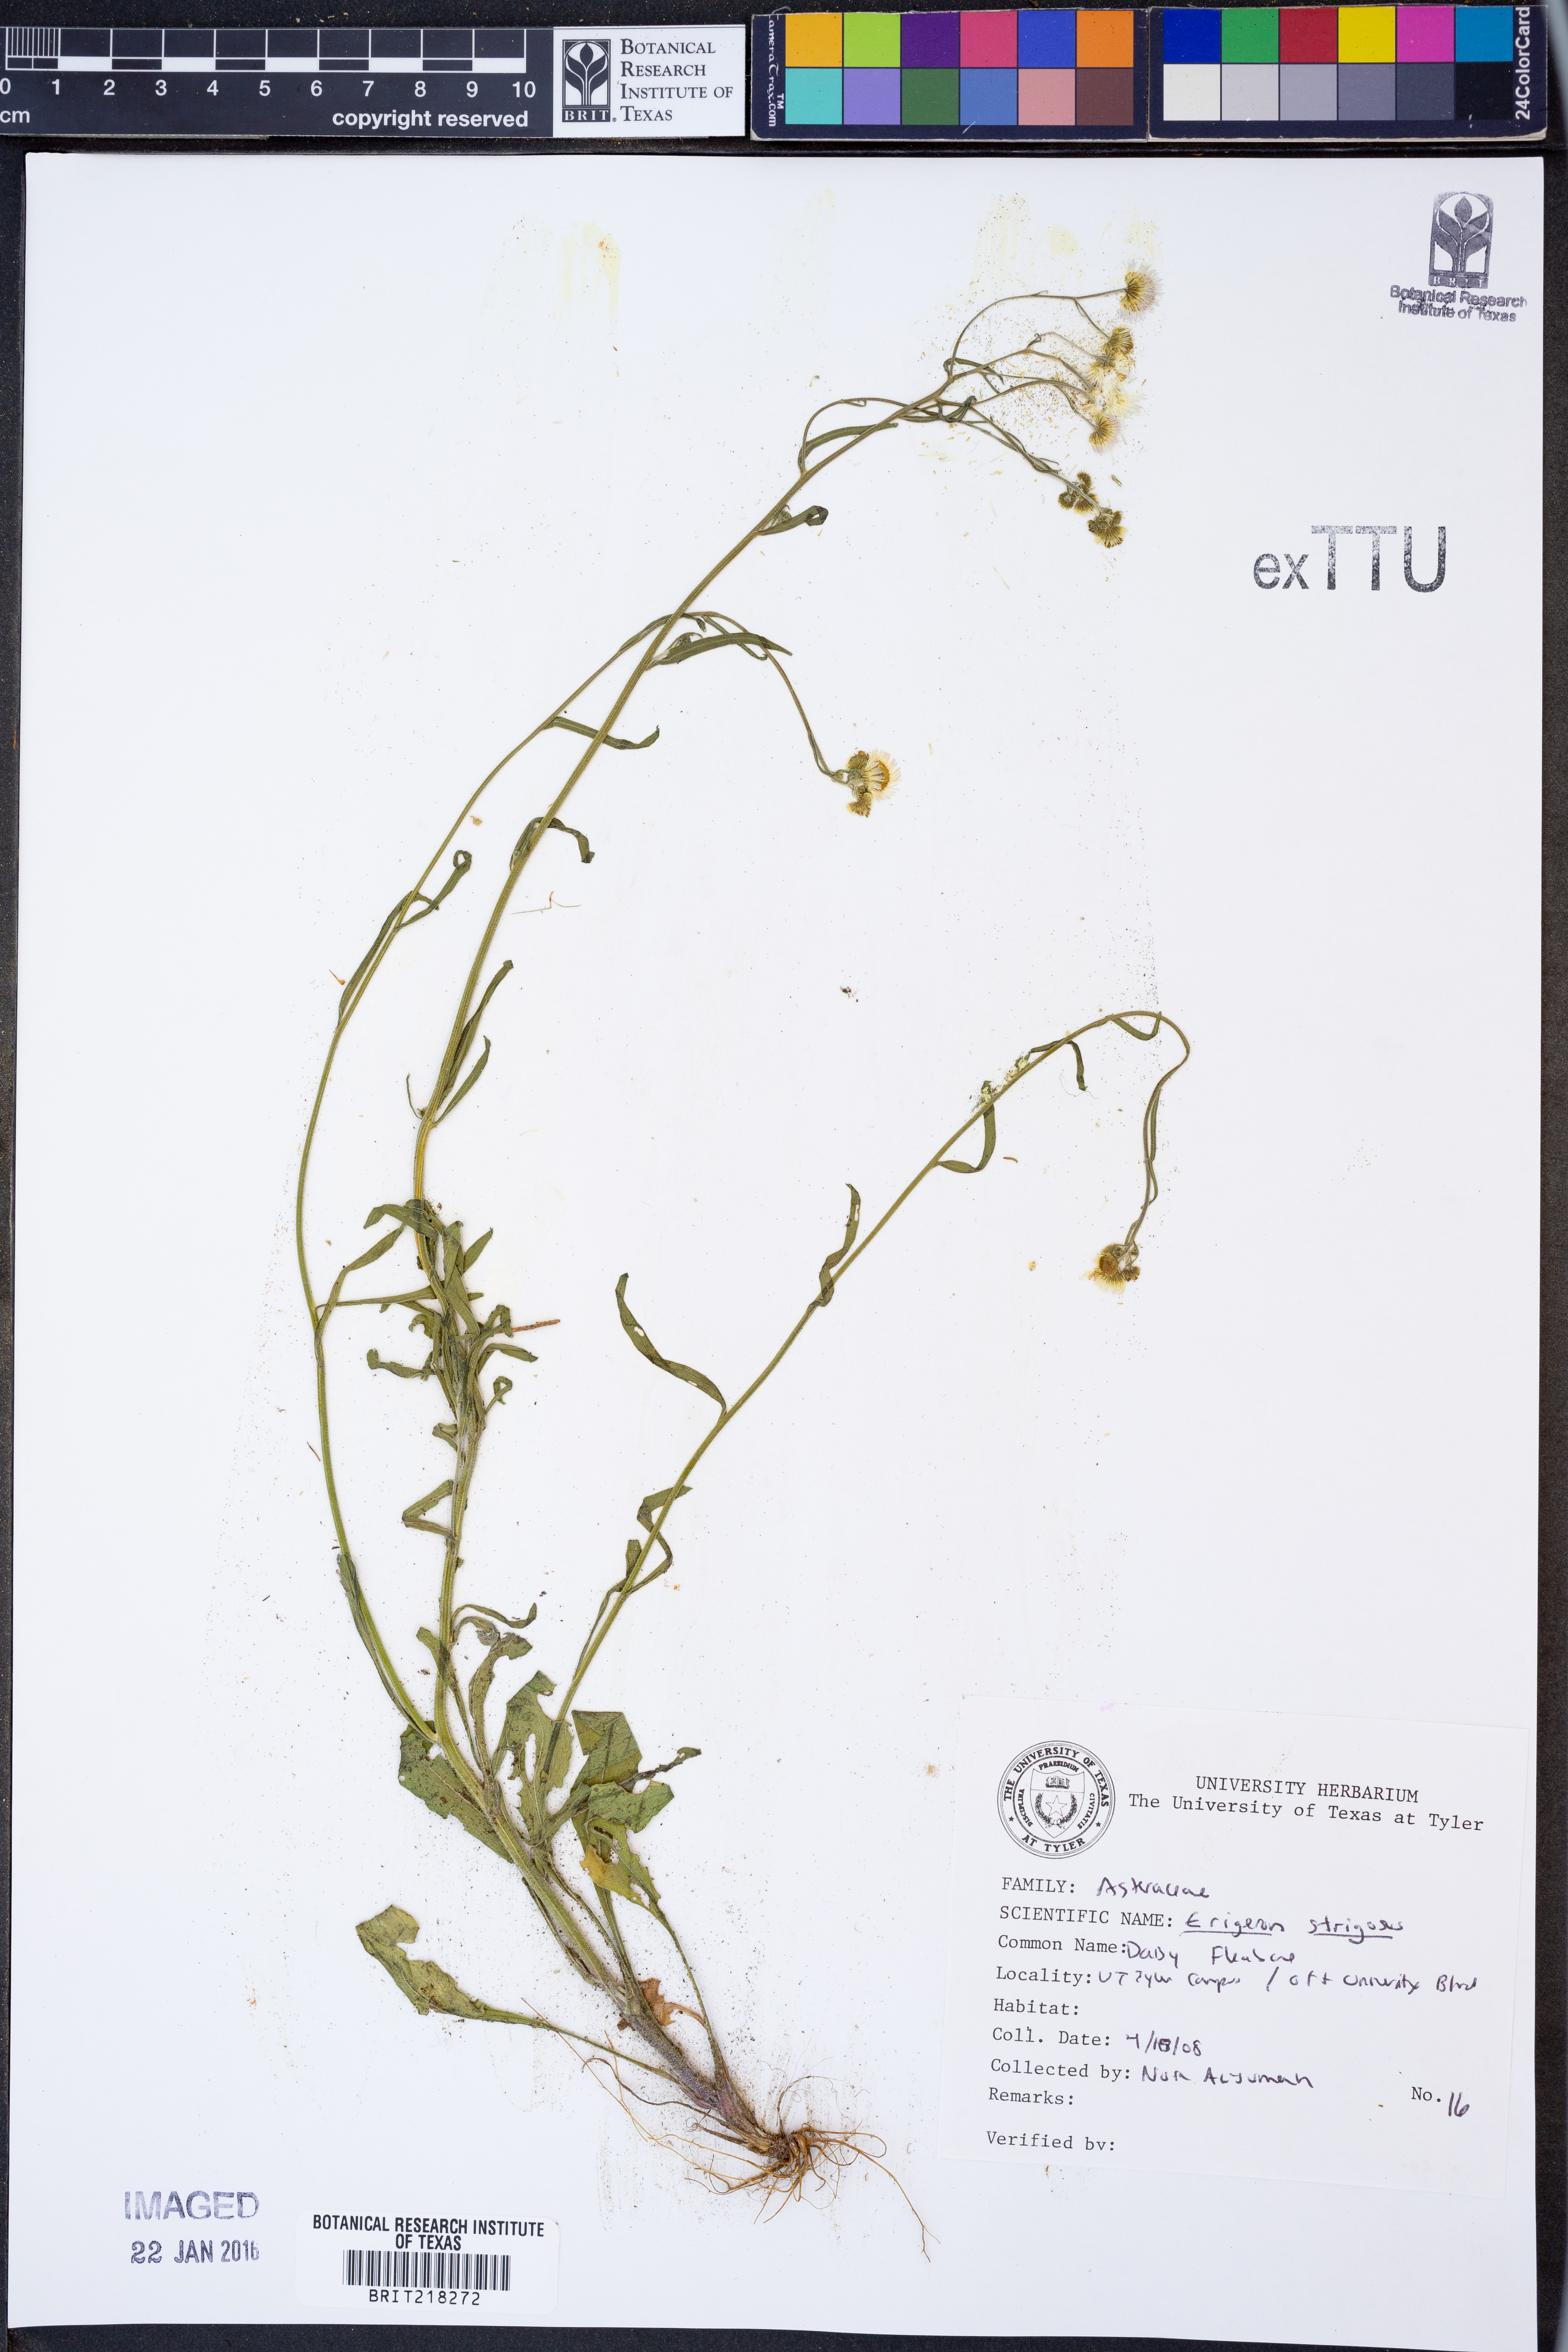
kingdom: Plantae
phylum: Tracheophyta
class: Magnoliopsida
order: Asterales
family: Asteraceae
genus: Erigeron
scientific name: Erigeron strigosus
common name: Common eastern fleabane
